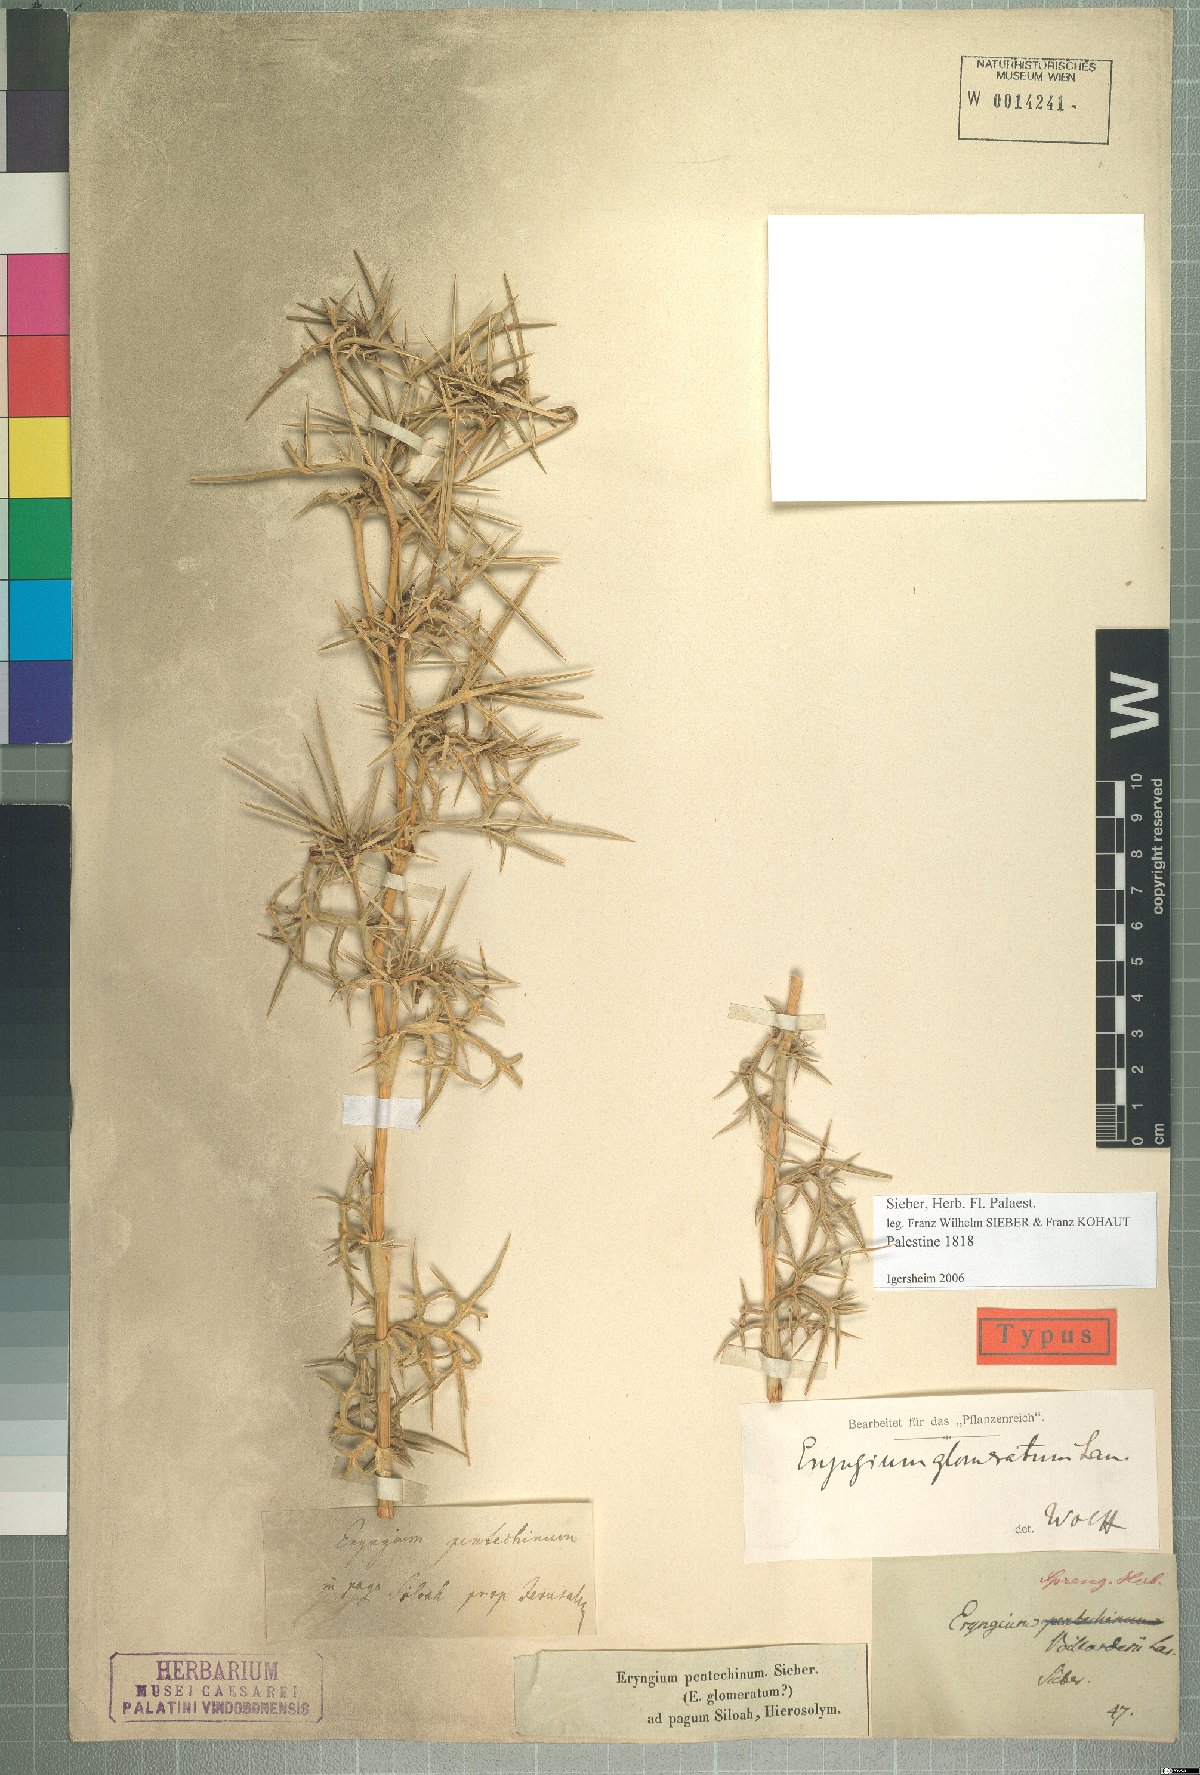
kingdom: Plantae
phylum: Tracheophyta
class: Magnoliopsida
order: Apiales
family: Apiaceae
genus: Eryngium
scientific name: Eryngium glomeratum
